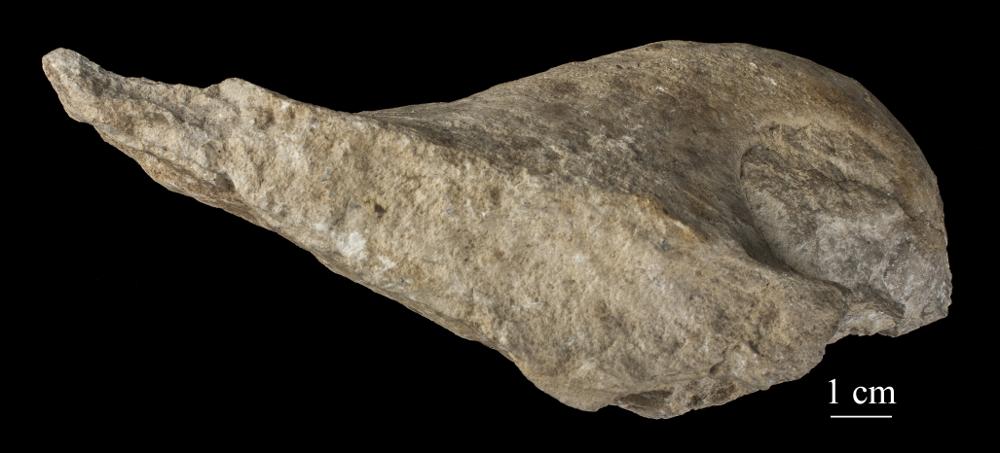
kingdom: Animalia
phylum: Mollusca
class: Gastropoda
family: Bucaniidae
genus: Salpingostoma
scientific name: Salpingostoma kokeni
